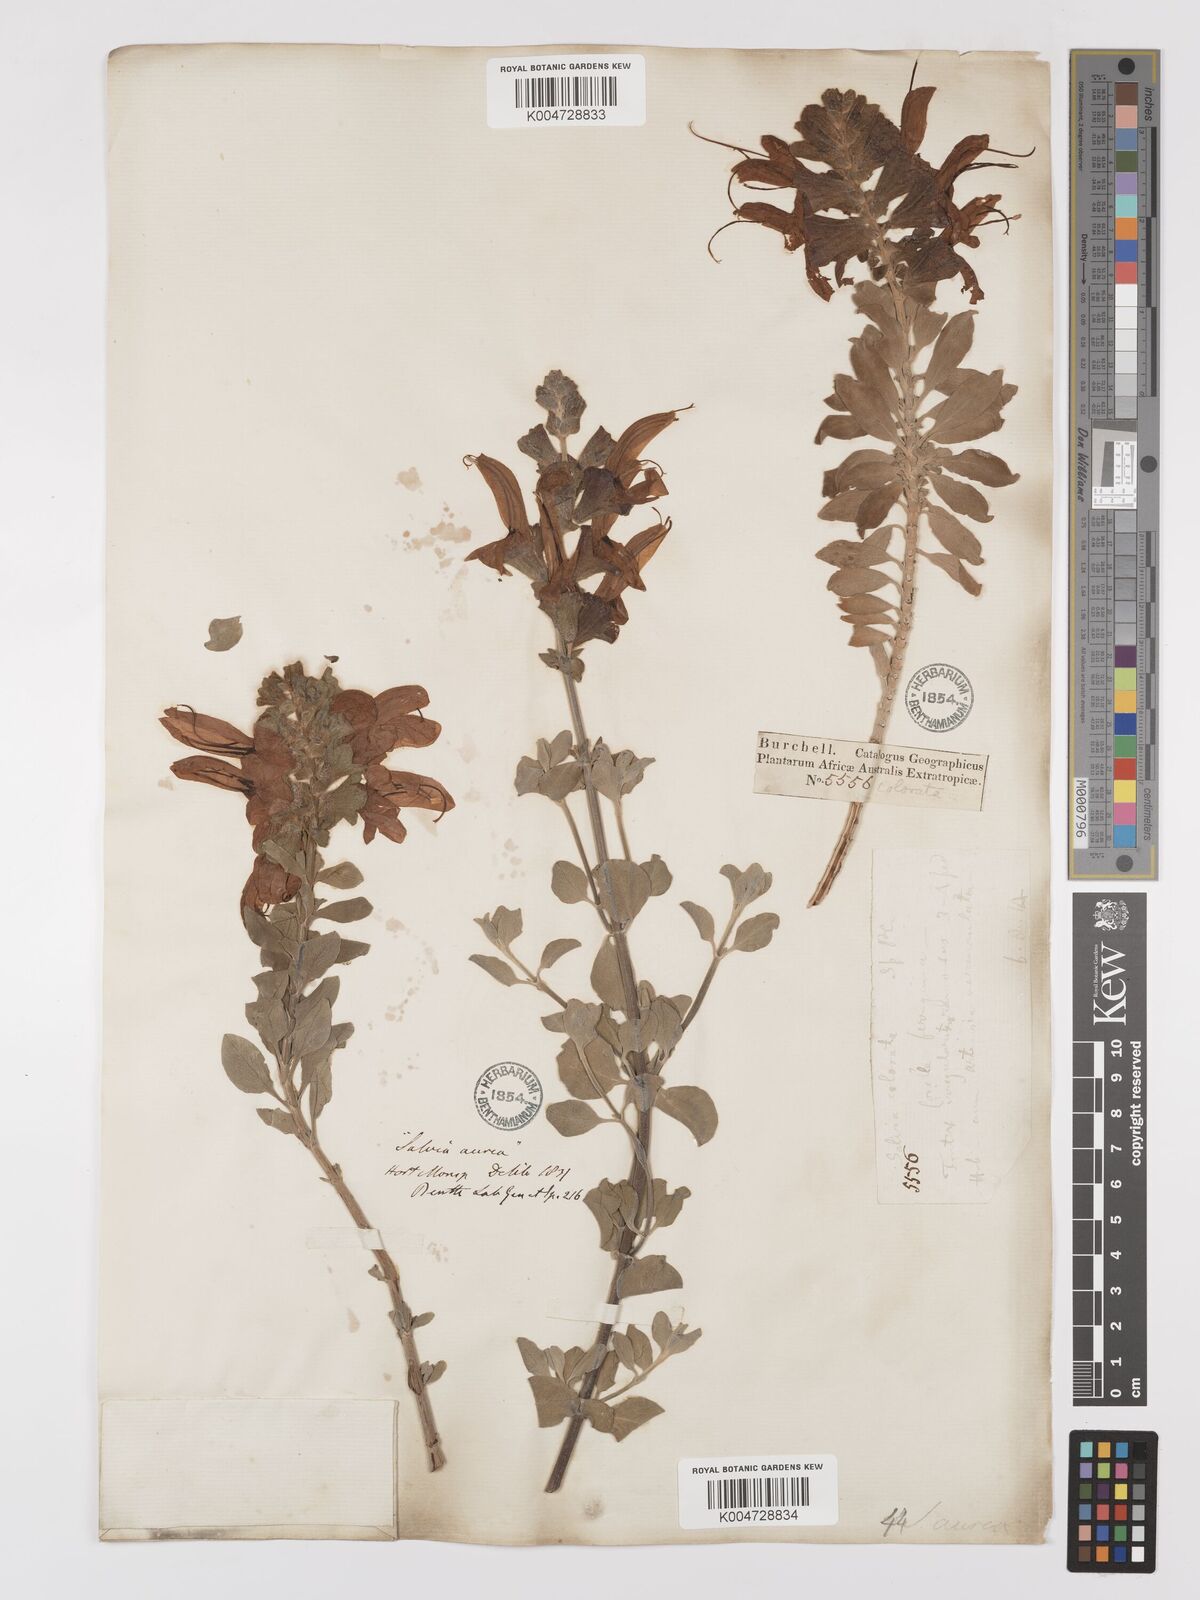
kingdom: Plantae
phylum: Tracheophyta
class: Magnoliopsida
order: Lamiales
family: Lamiaceae
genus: Salvia
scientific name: Salvia aurea
